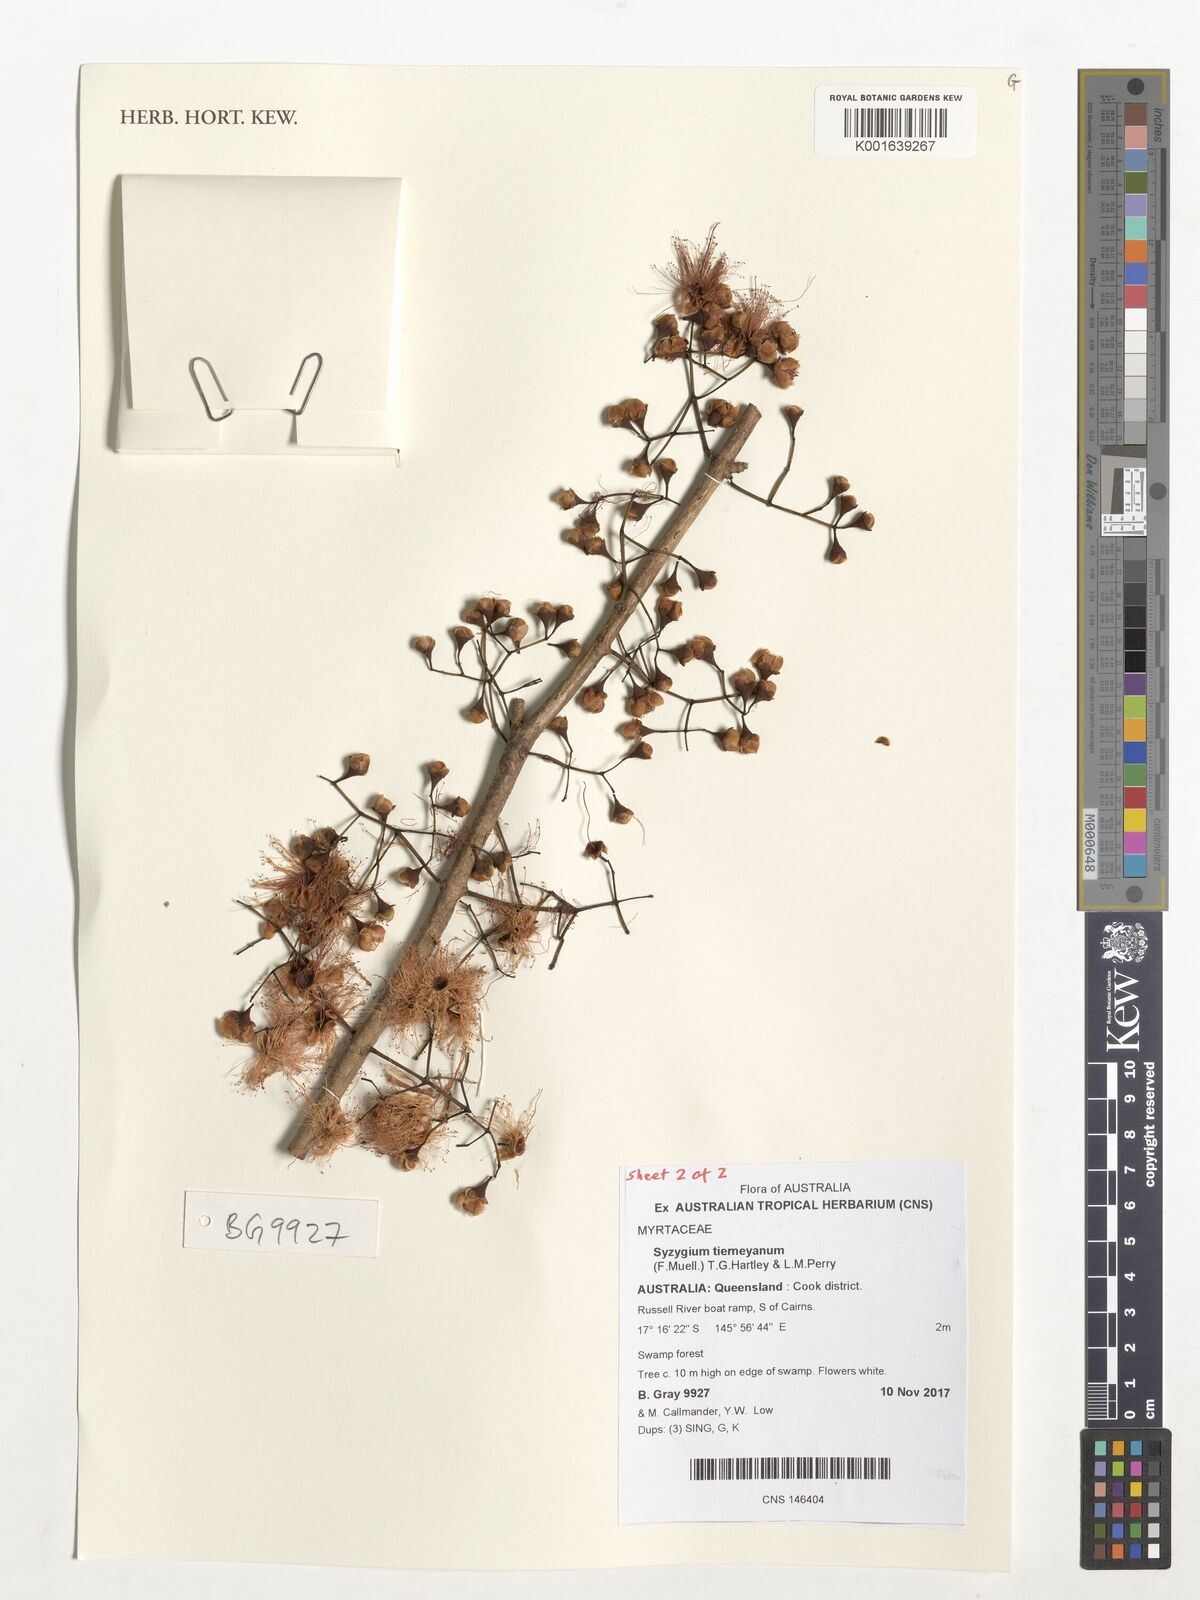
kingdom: Plantae
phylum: Tracheophyta
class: Magnoliopsida
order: Myrtales
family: Myrtaceae
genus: Syzygium
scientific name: Syzygium tierneyanum
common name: River-cherry
